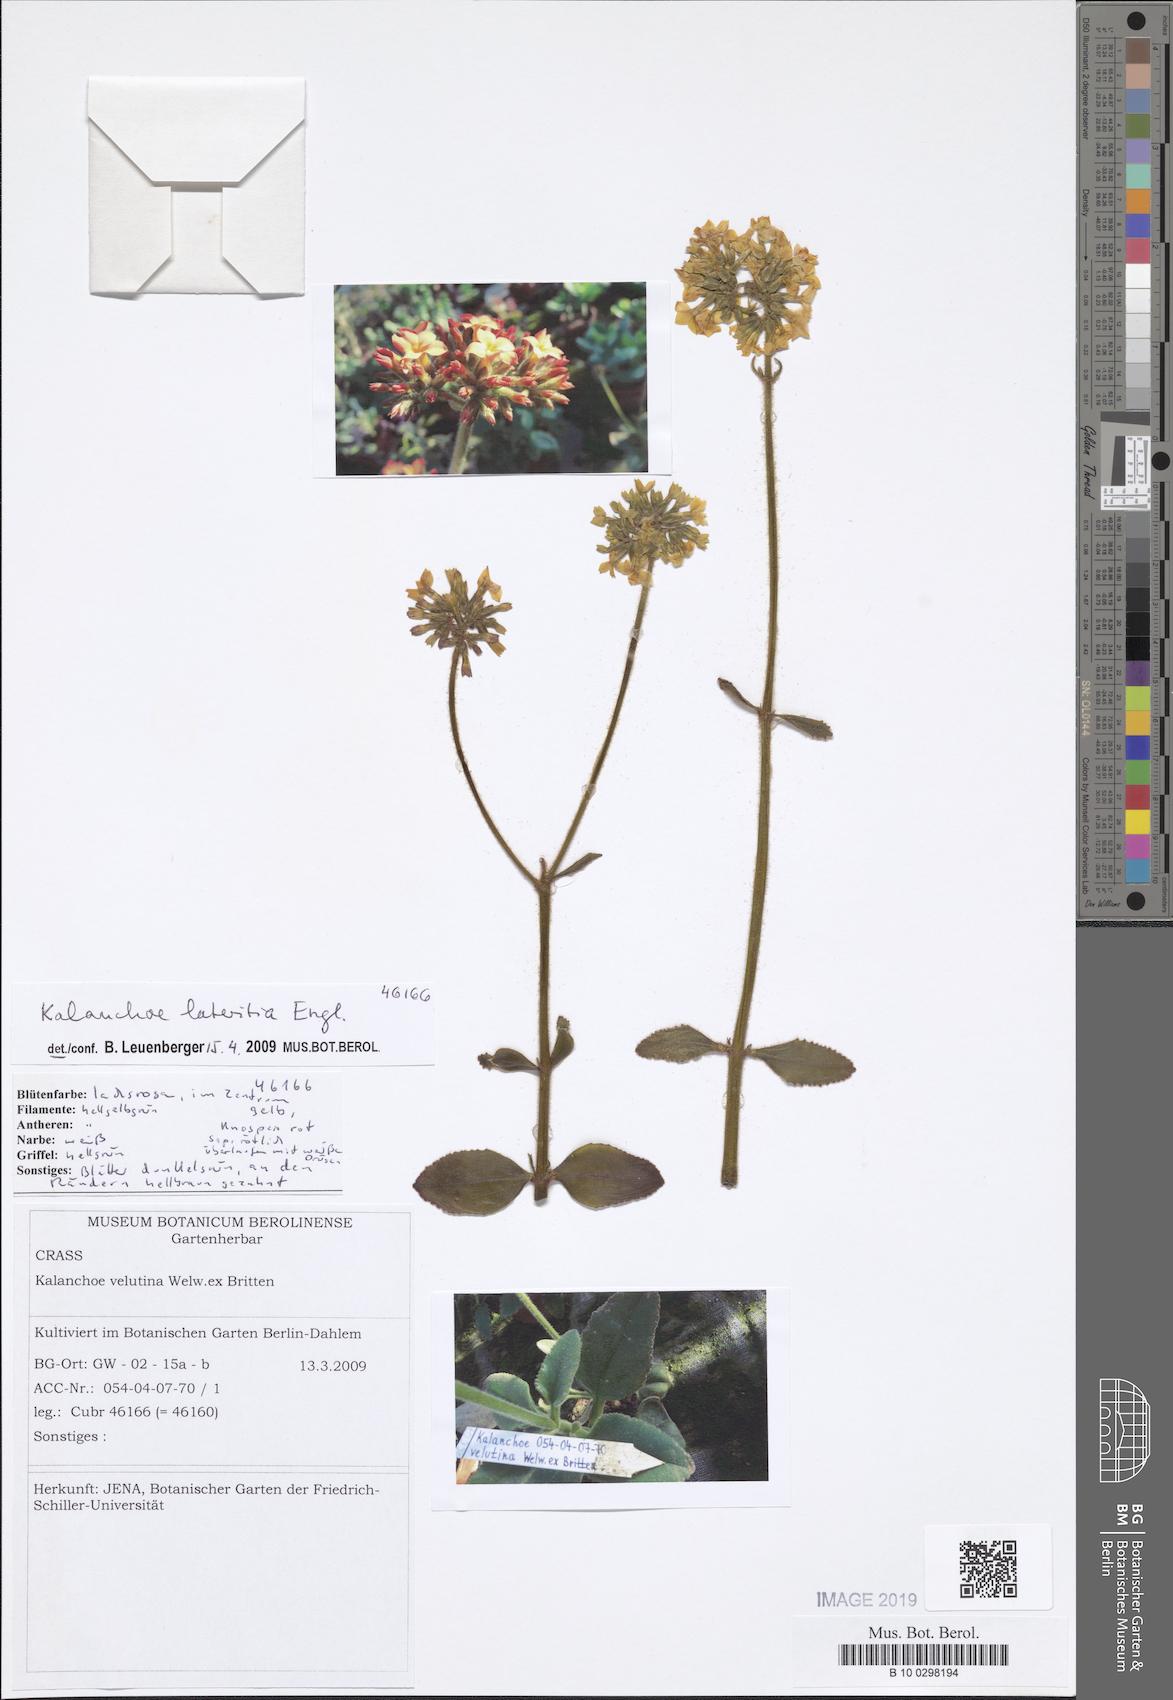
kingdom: Plantae
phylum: Tracheophyta
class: Magnoliopsida
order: Saxifragales
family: Crassulaceae
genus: Kalanchoe
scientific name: Kalanchoe lateritia
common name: Kalanchoe
